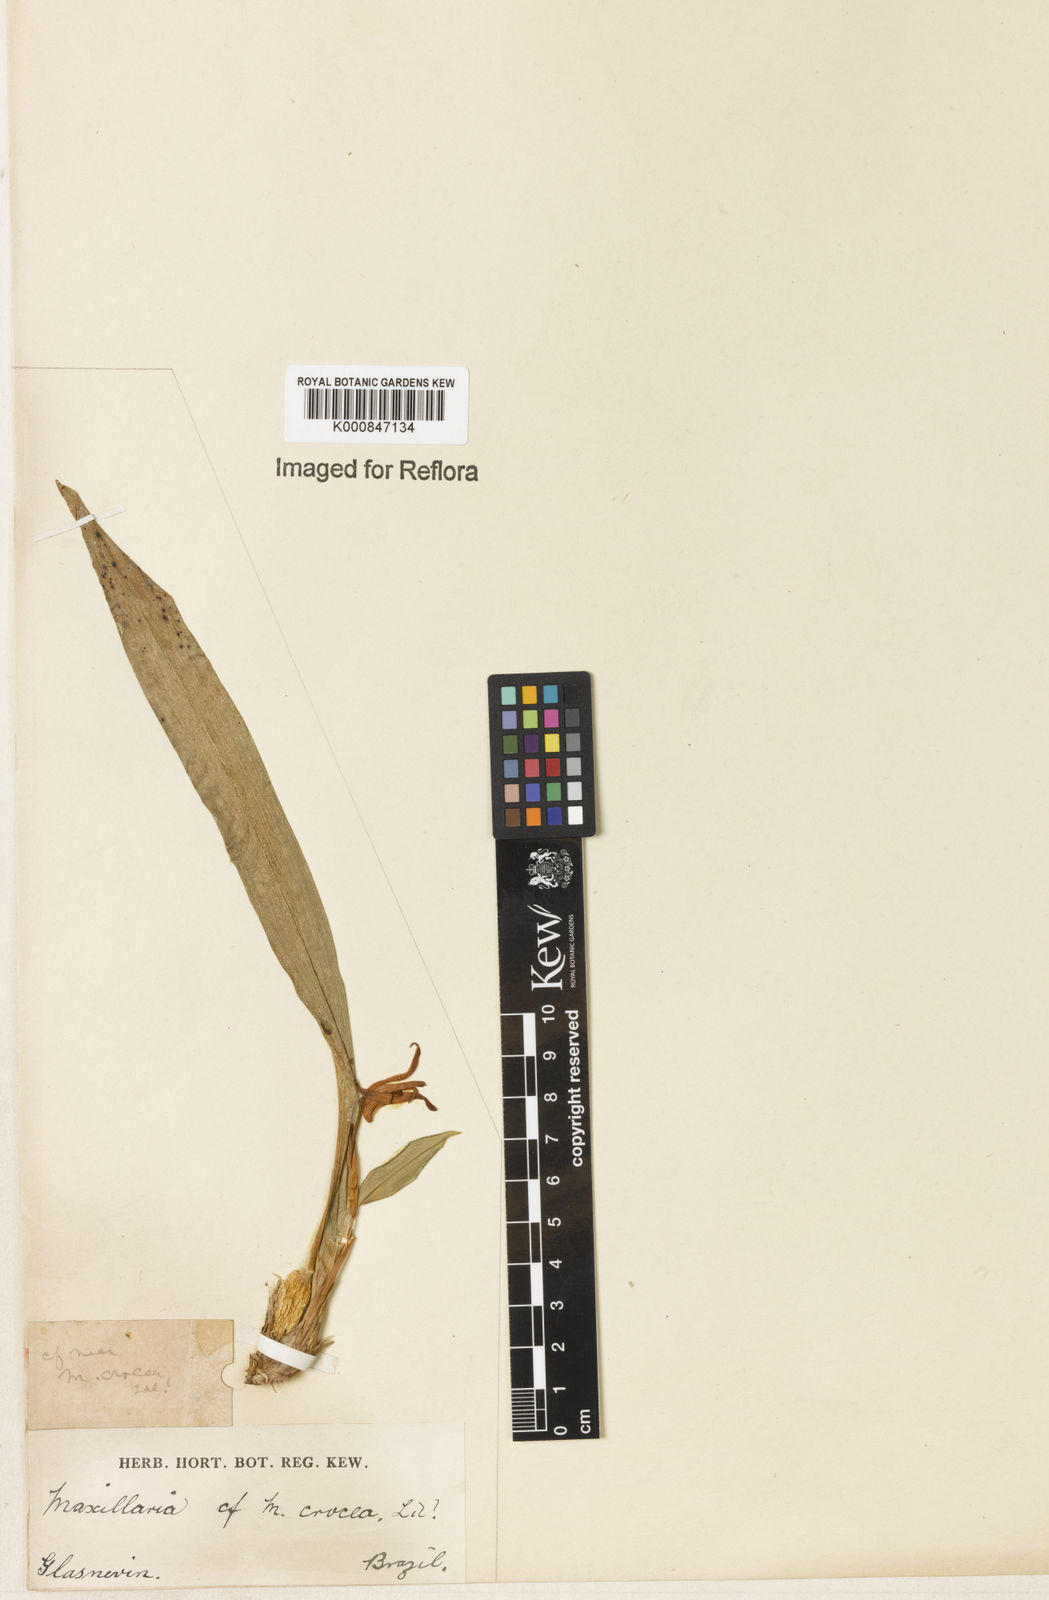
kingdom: Plantae
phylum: Tracheophyta
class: Liliopsida
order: Asparagales
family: Orchidaceae
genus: Maxillaria
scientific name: Maxillaria crocea
